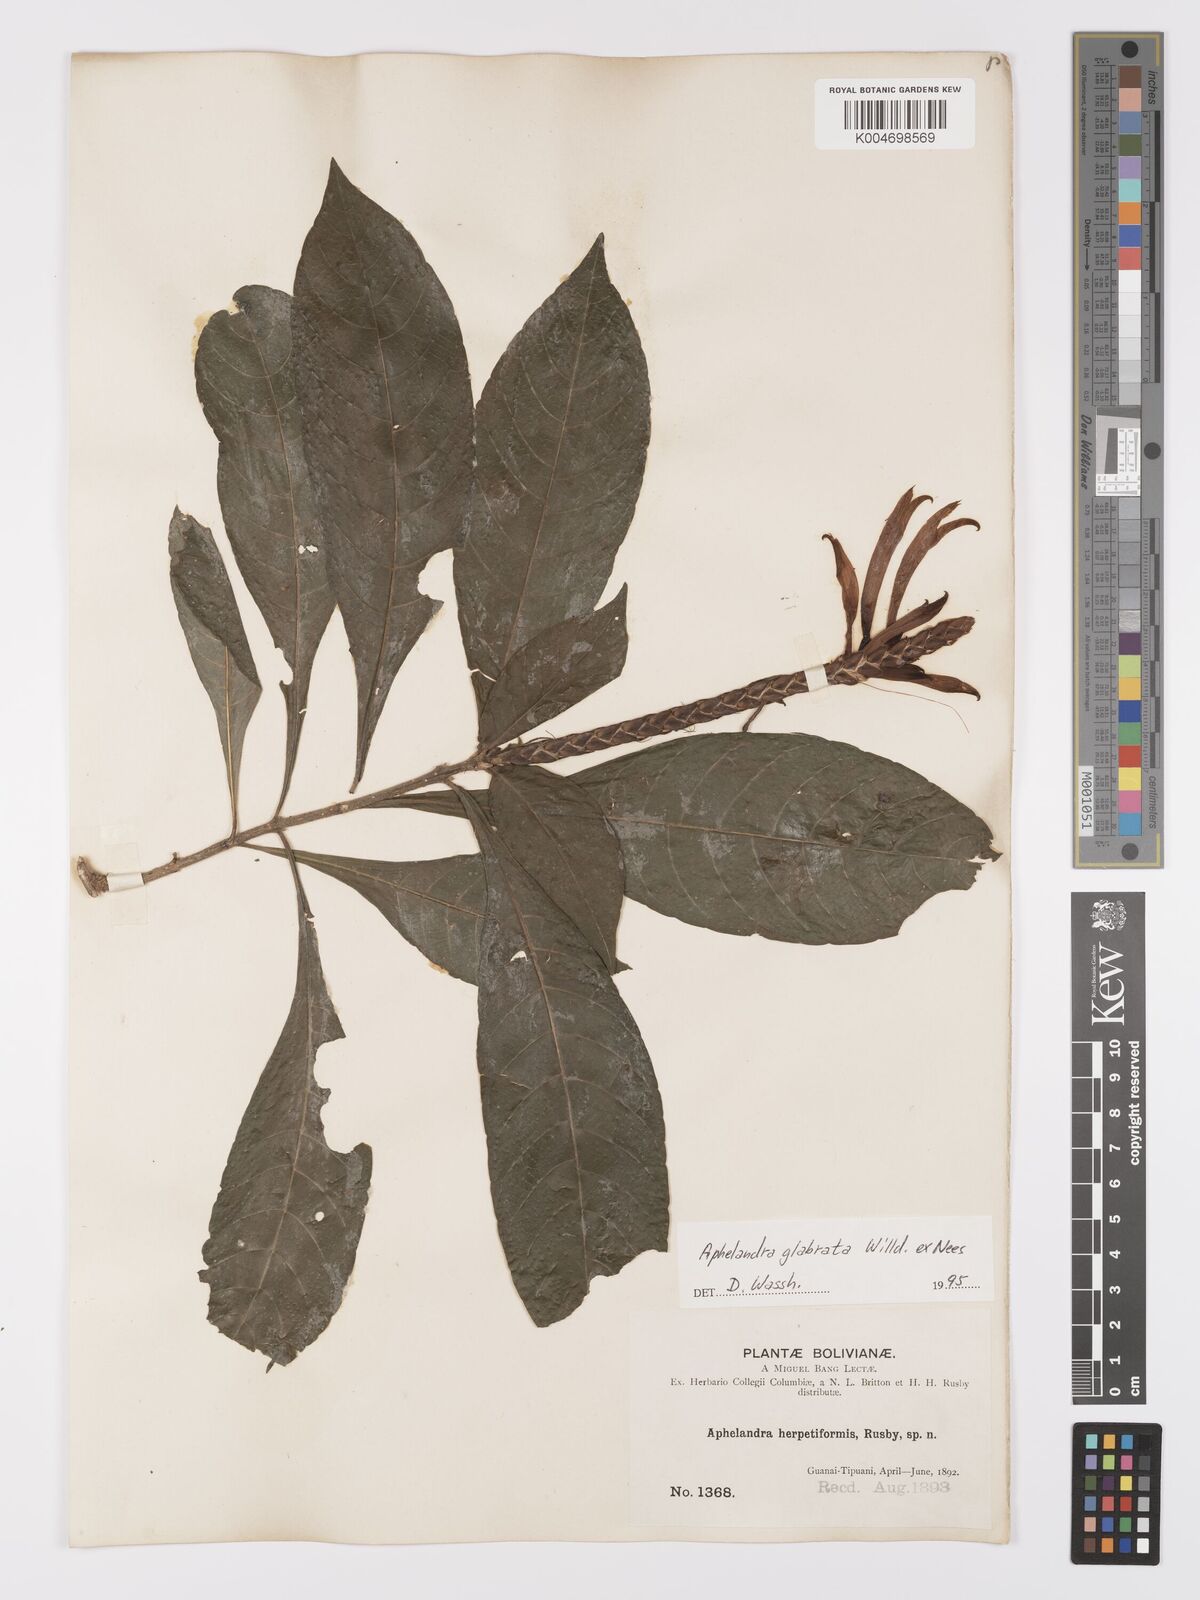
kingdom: Plantae
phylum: Tracheophyta
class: Magnoliopsida
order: Lamiales
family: Acanthaceae
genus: Aphelandra
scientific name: Aphelandra glabrata
